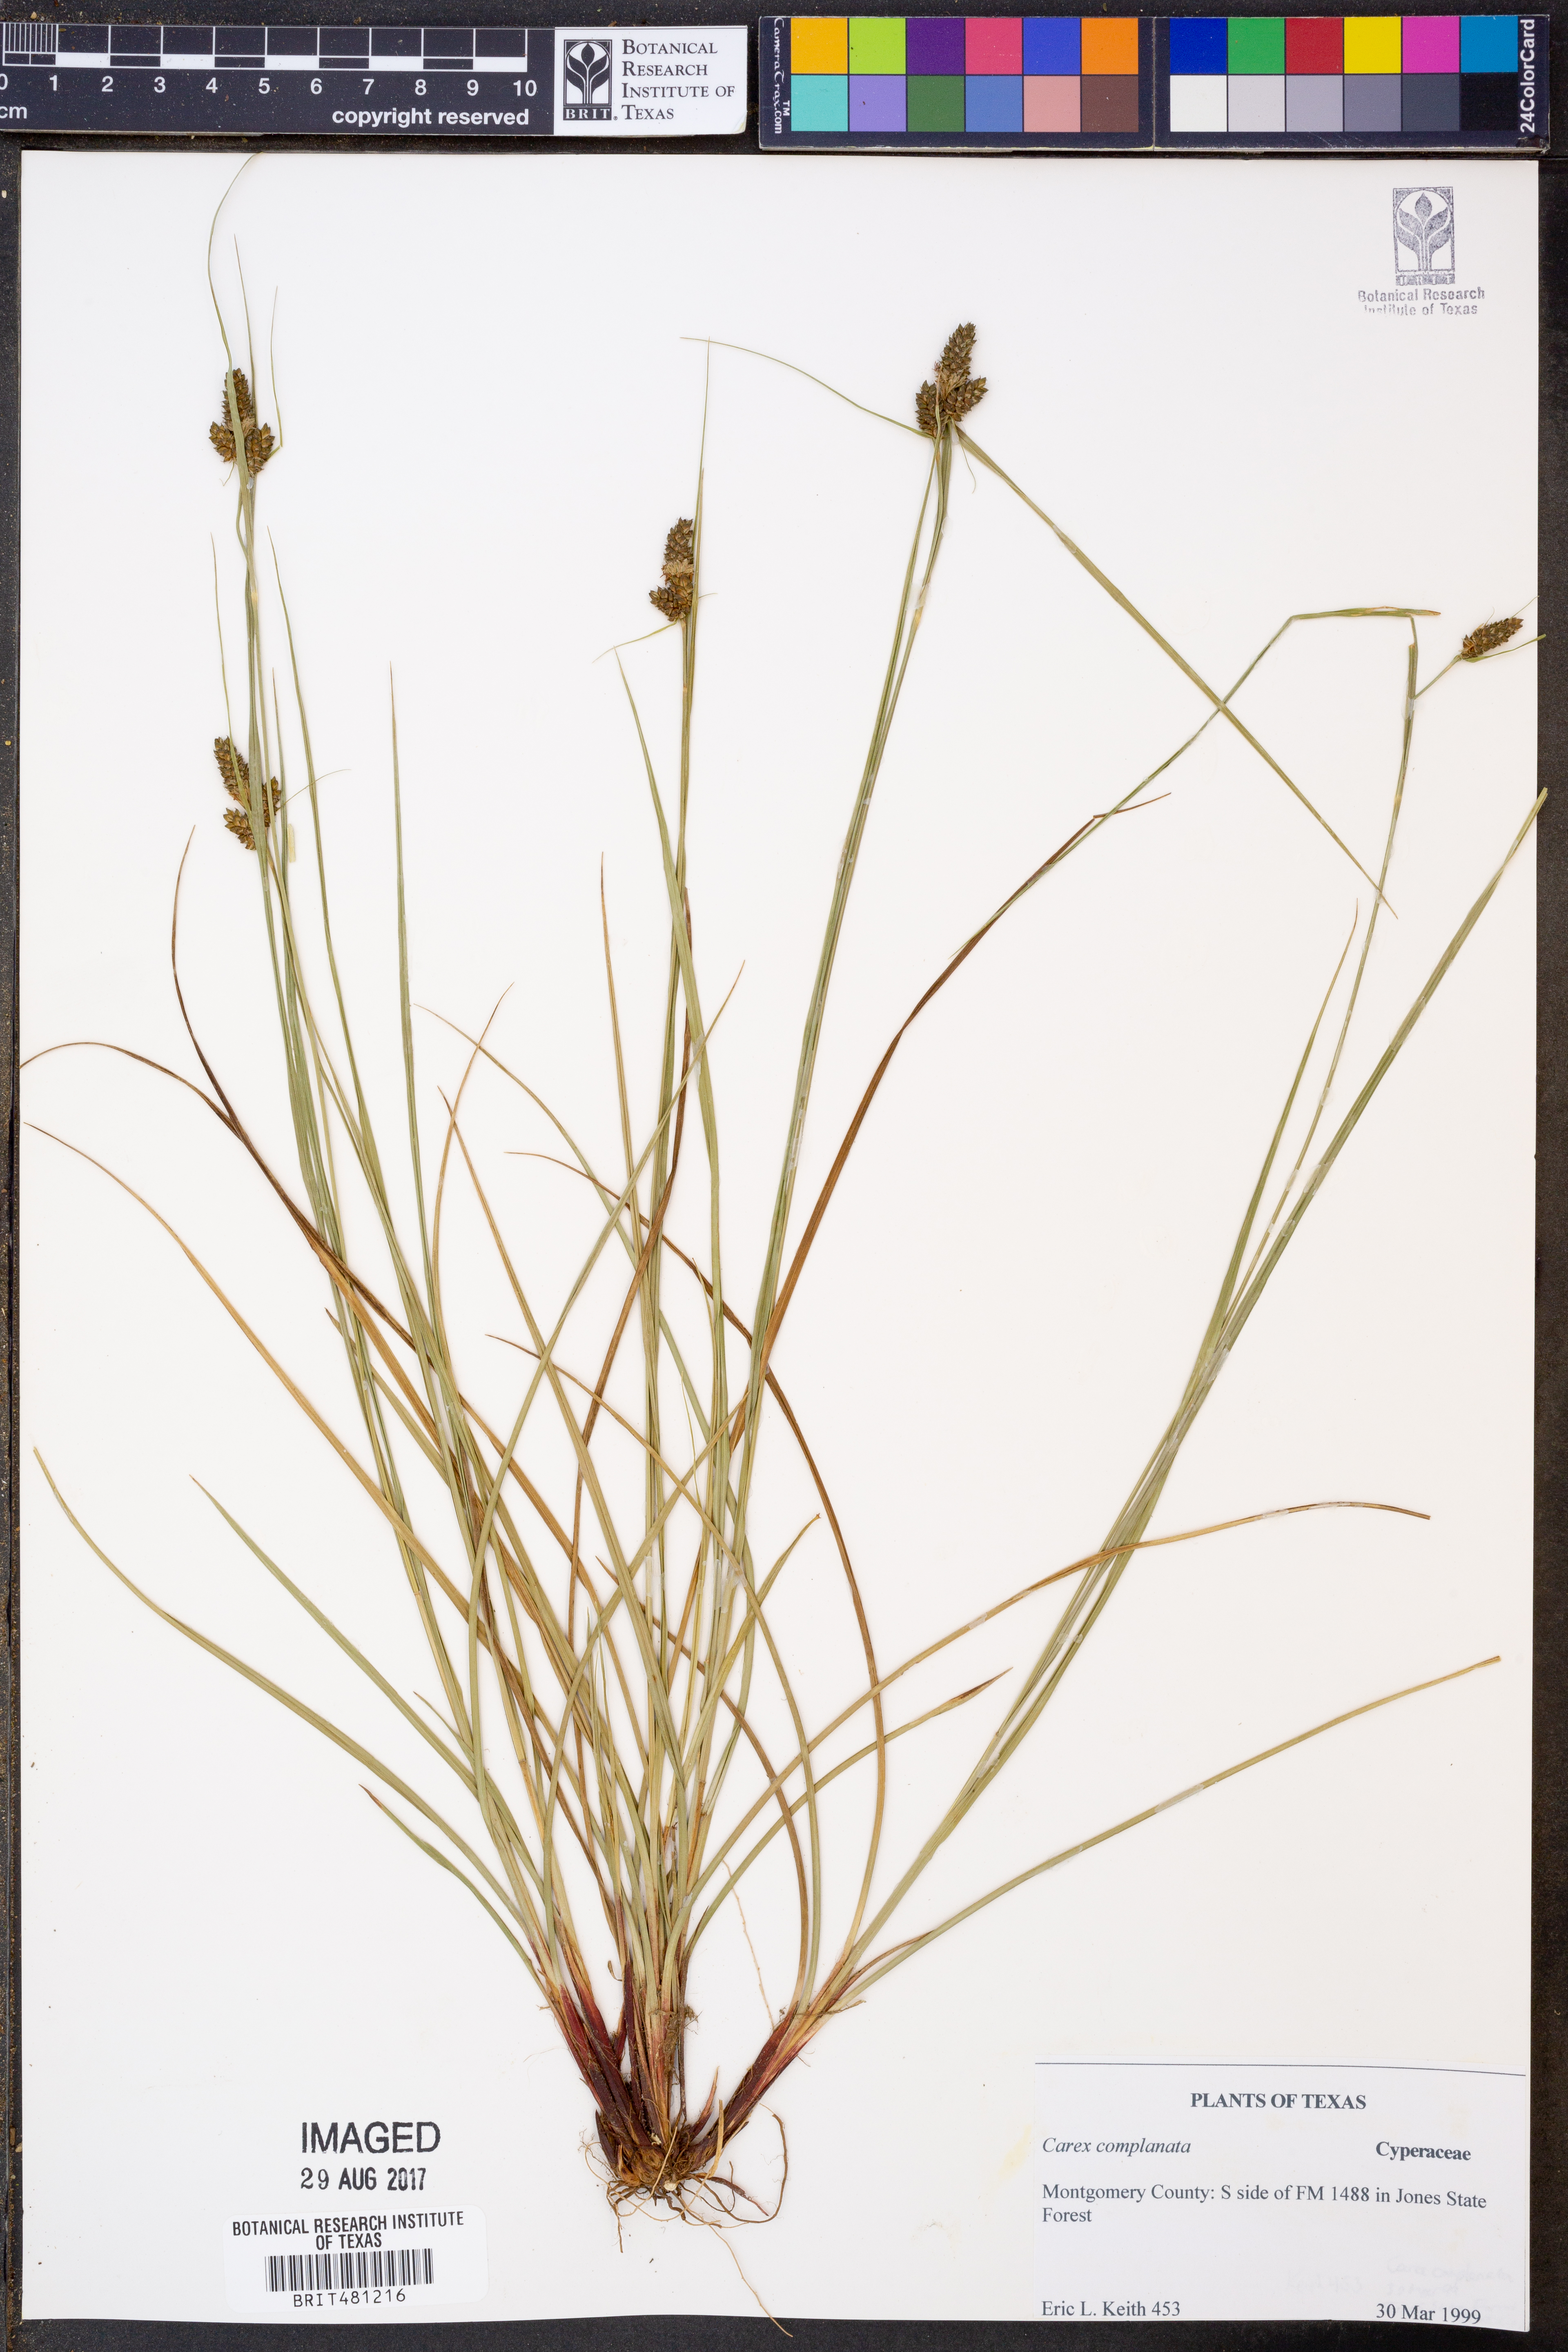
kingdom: Plantae
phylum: Tracheophyta
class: Liliopsida
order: Poales
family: Cyperaceae
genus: Carex
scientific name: Carex complanata
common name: Hirsute sedge
